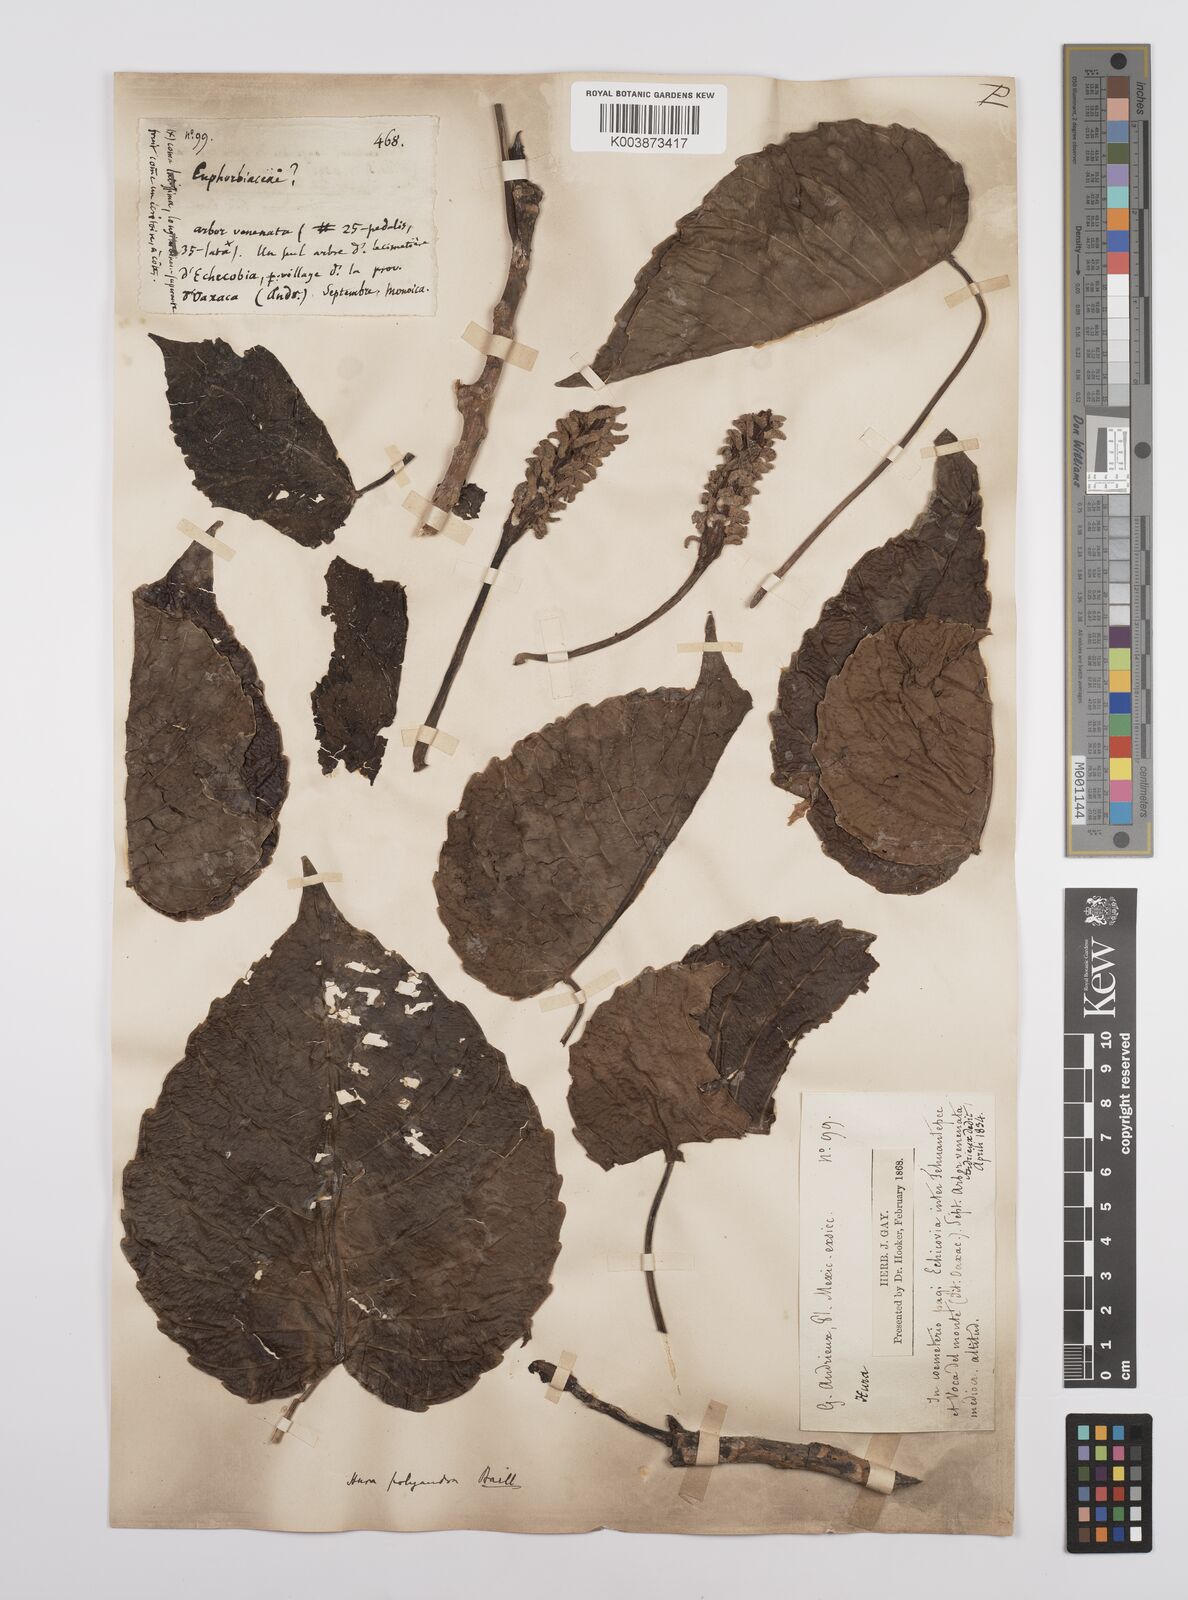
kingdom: Plantae
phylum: Tracheophyta
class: Magnoliopsida
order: Malpighiales
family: Euphorbiaceae
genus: Hura
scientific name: Hura polyandra
